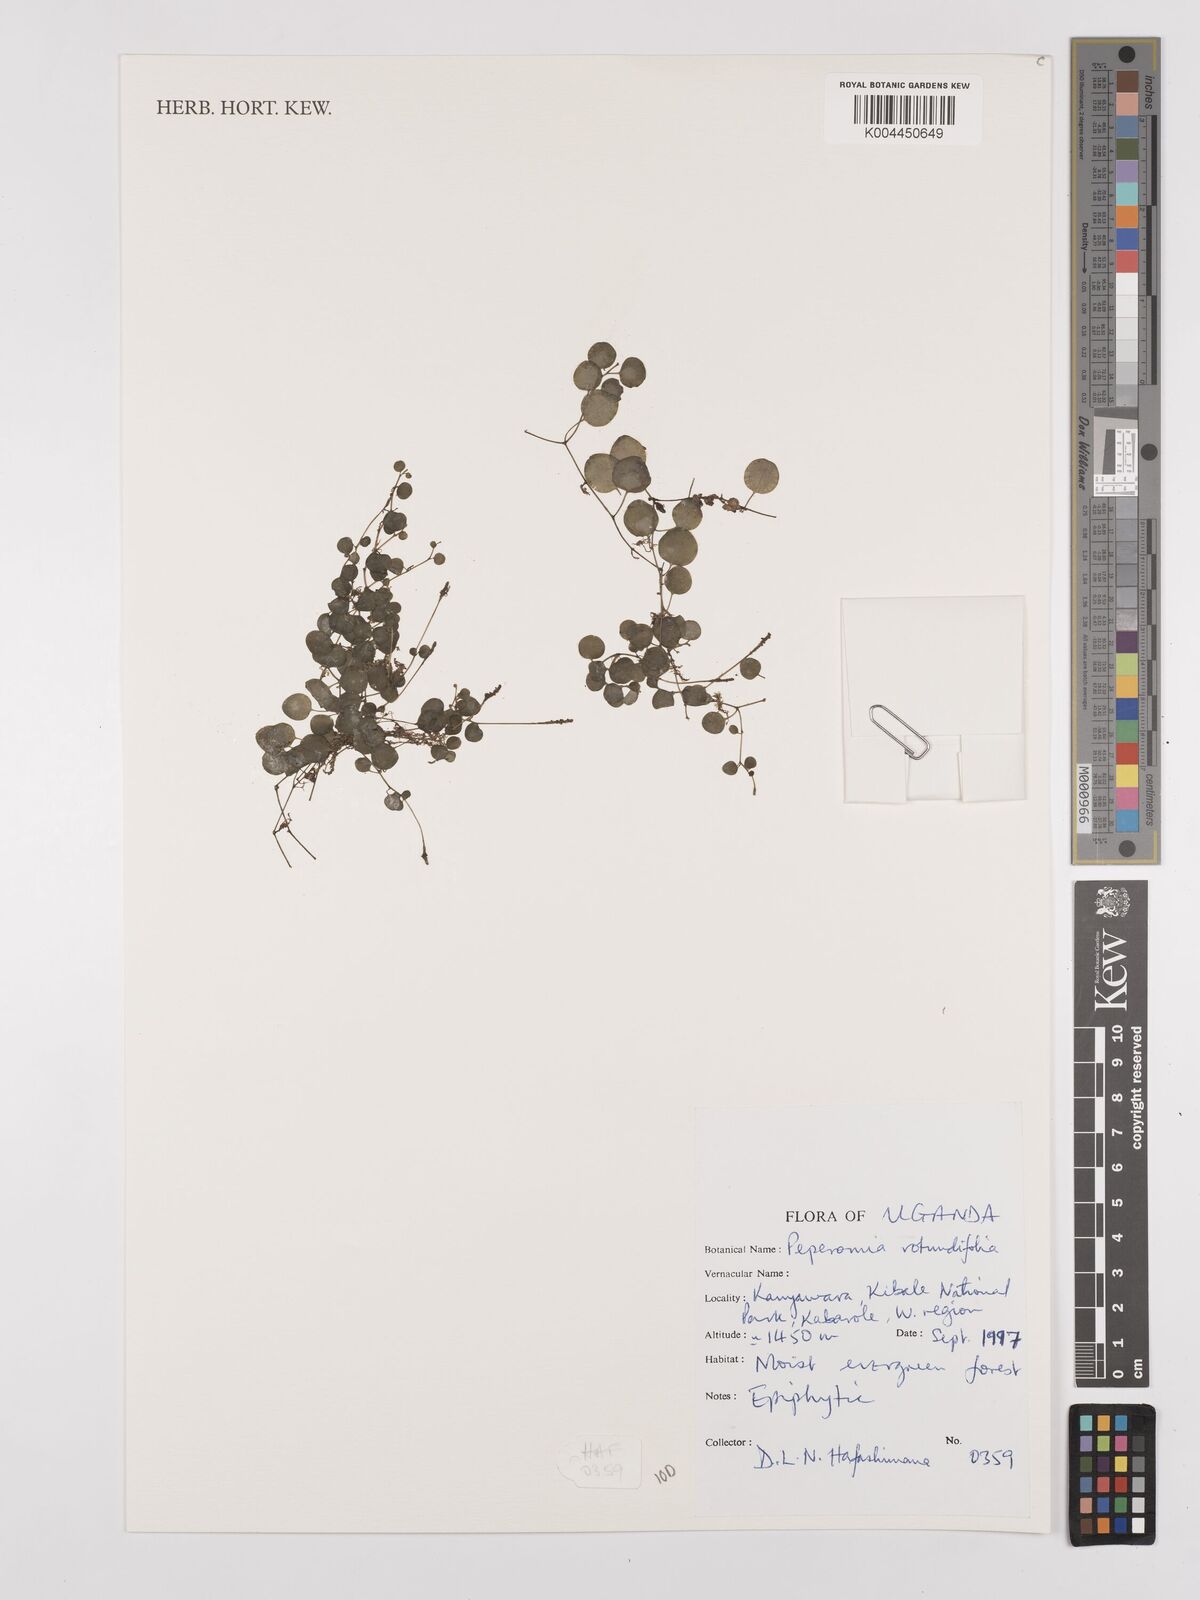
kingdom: Plantae
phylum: Tracheophyta
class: Magnoliopsida
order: Piperales
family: Piperaceae
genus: Peperomia
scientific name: Peperomia rotundifolia
